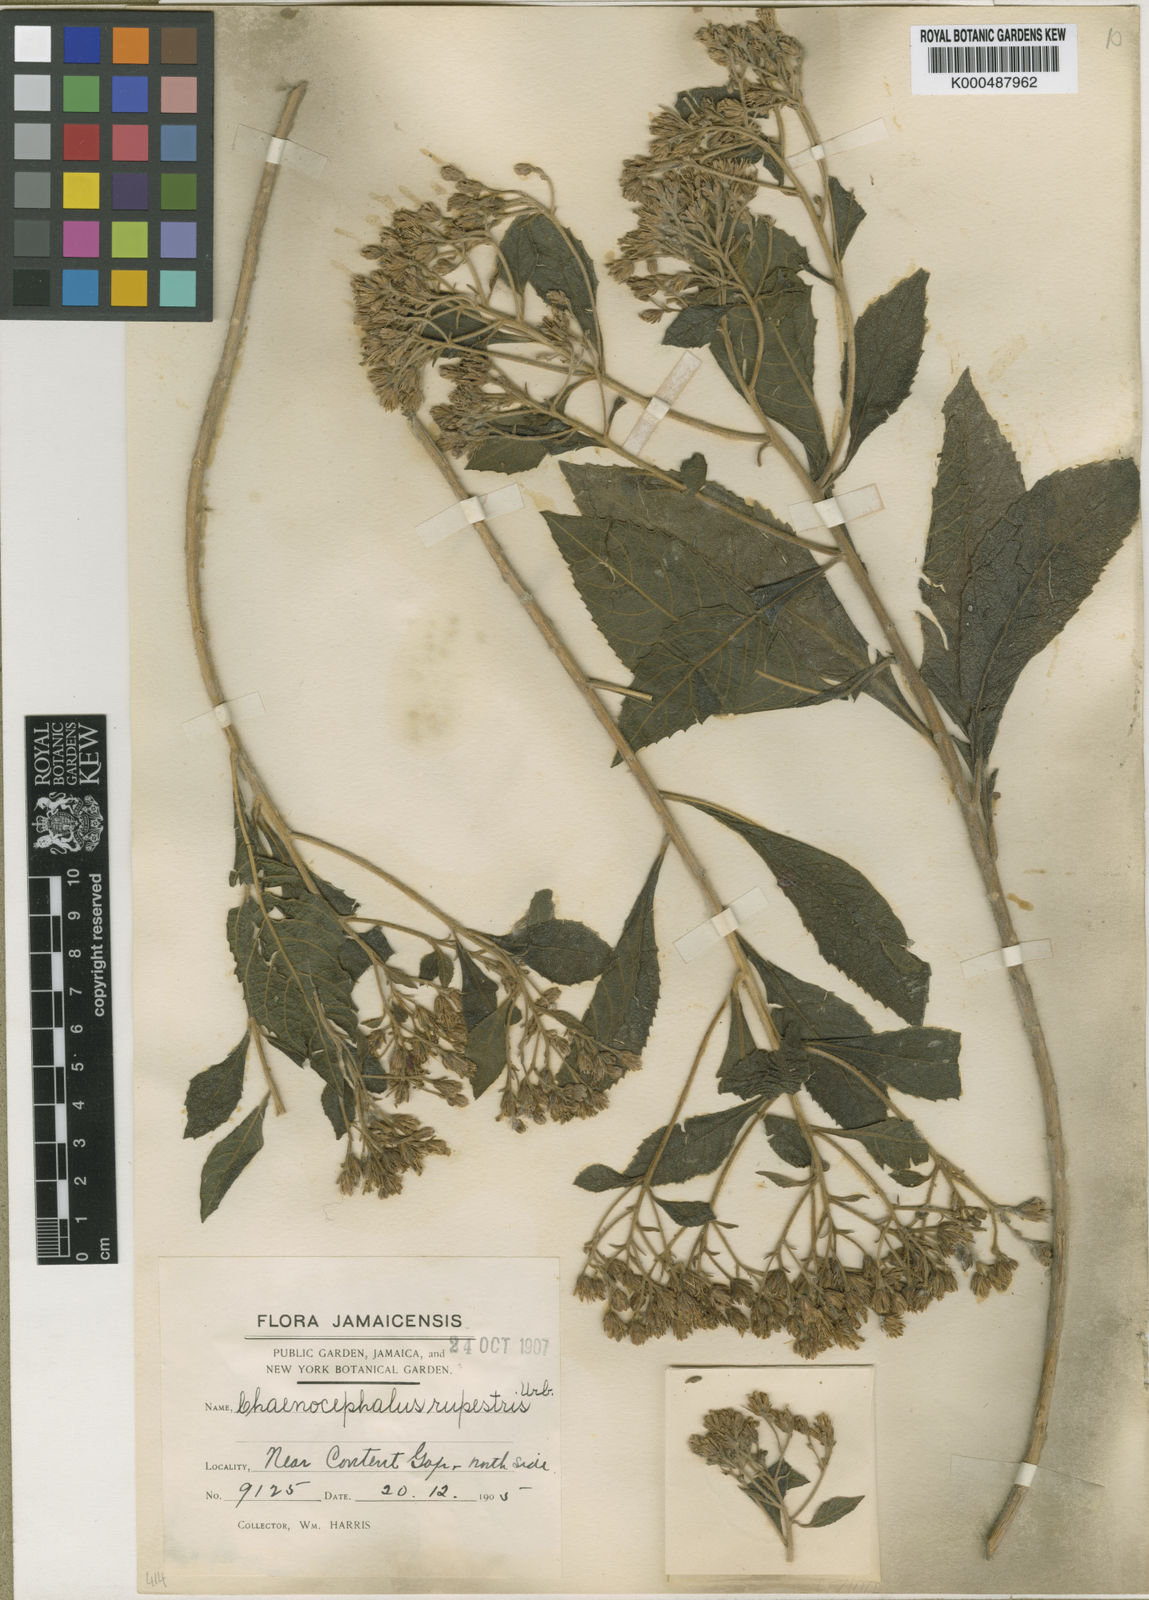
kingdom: Plantae
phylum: Tracheophyta
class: Magnoliopsida
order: Asterales
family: Asteraceae
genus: Verbesina
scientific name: Verbesina rupestris
